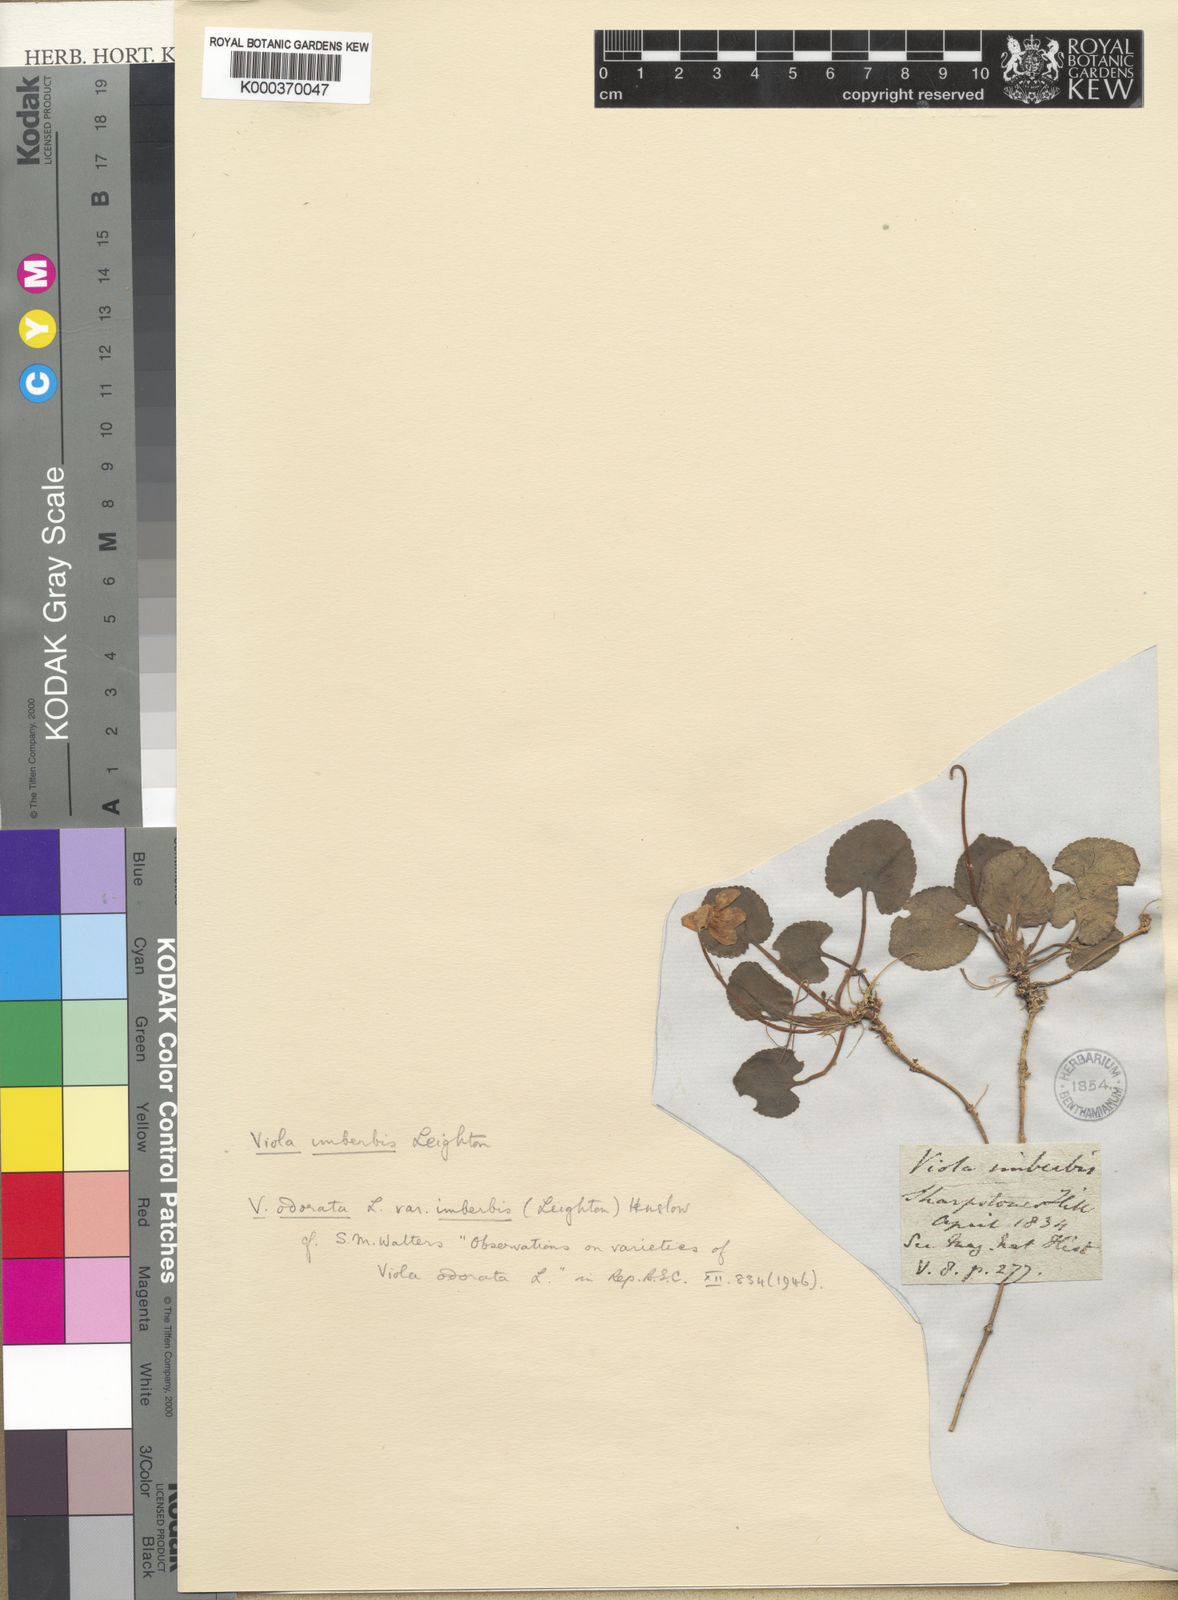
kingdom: Plantae
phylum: Tracheophyta
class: Magnoliopsida
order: Malpighiales
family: Violaceae
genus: Viola
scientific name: Viola odorata
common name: Sweet violet
